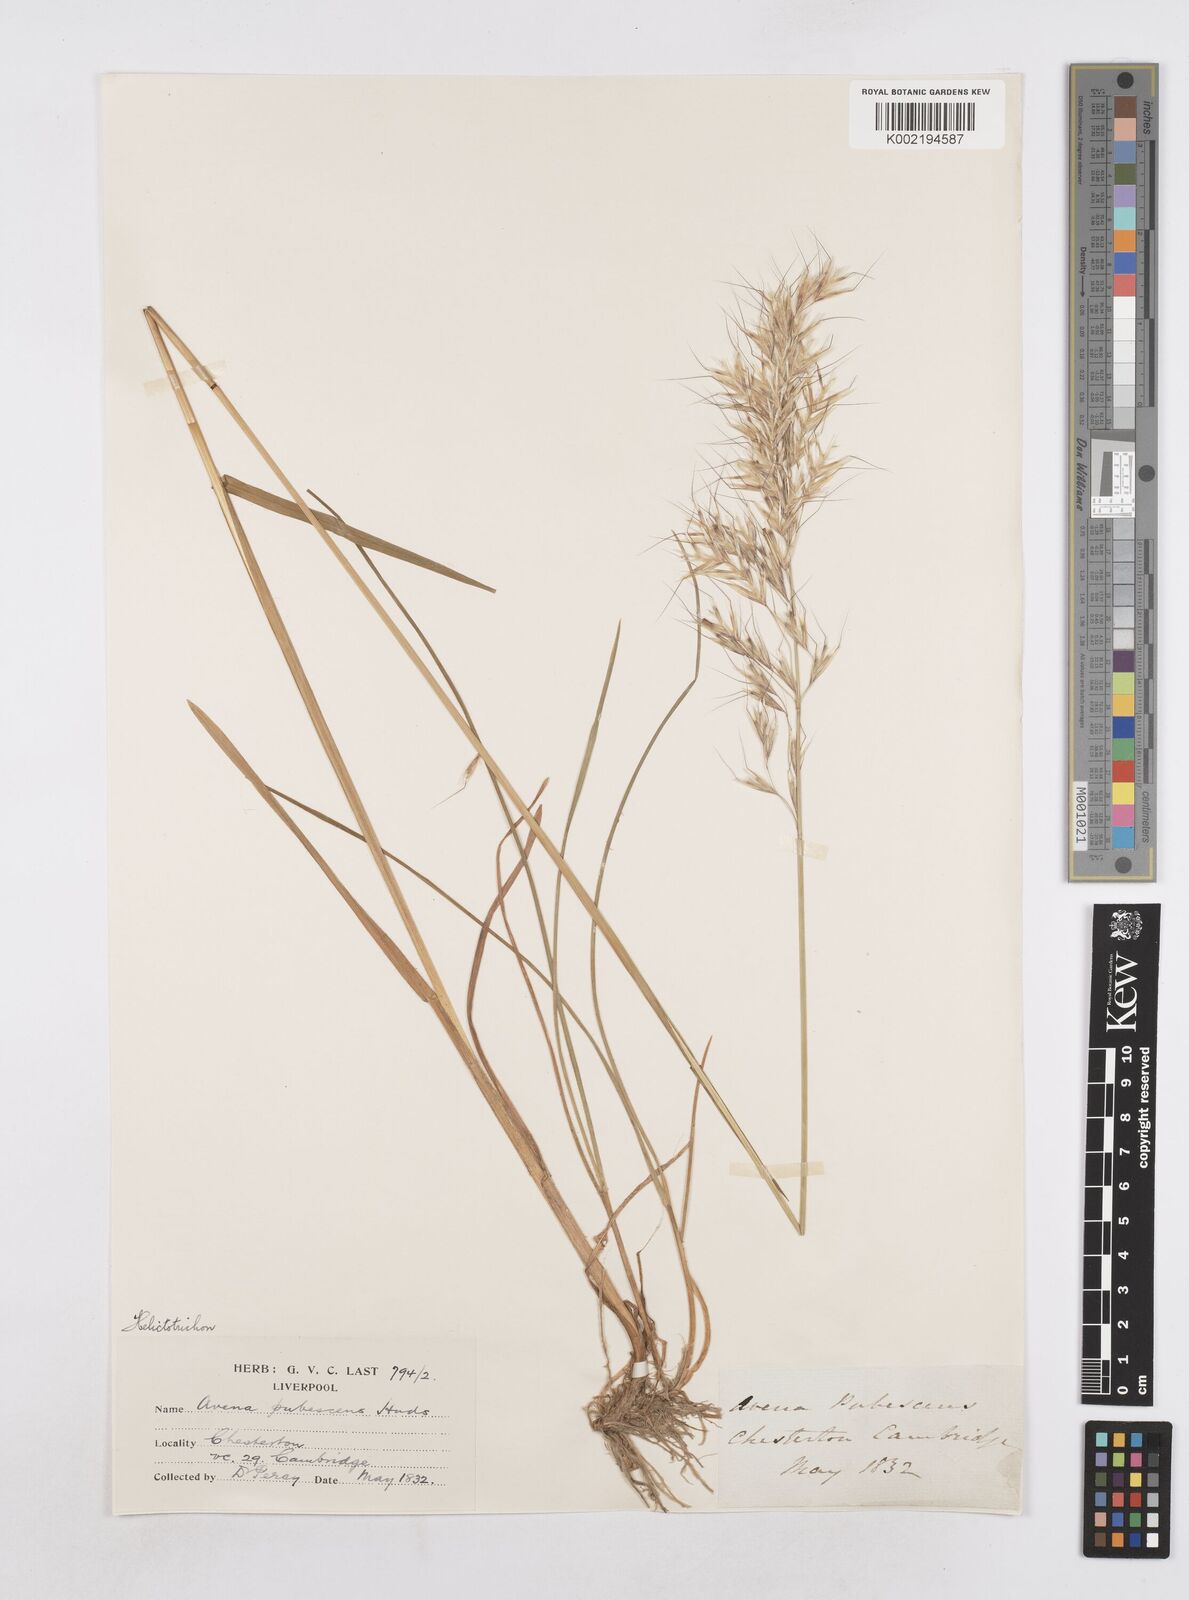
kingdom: Plantae
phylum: Tracheophyta
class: Liliopsida
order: Poales
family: Poaceae
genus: Avenula
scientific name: Avenula pubescens
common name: Downy alpine oatgrass
